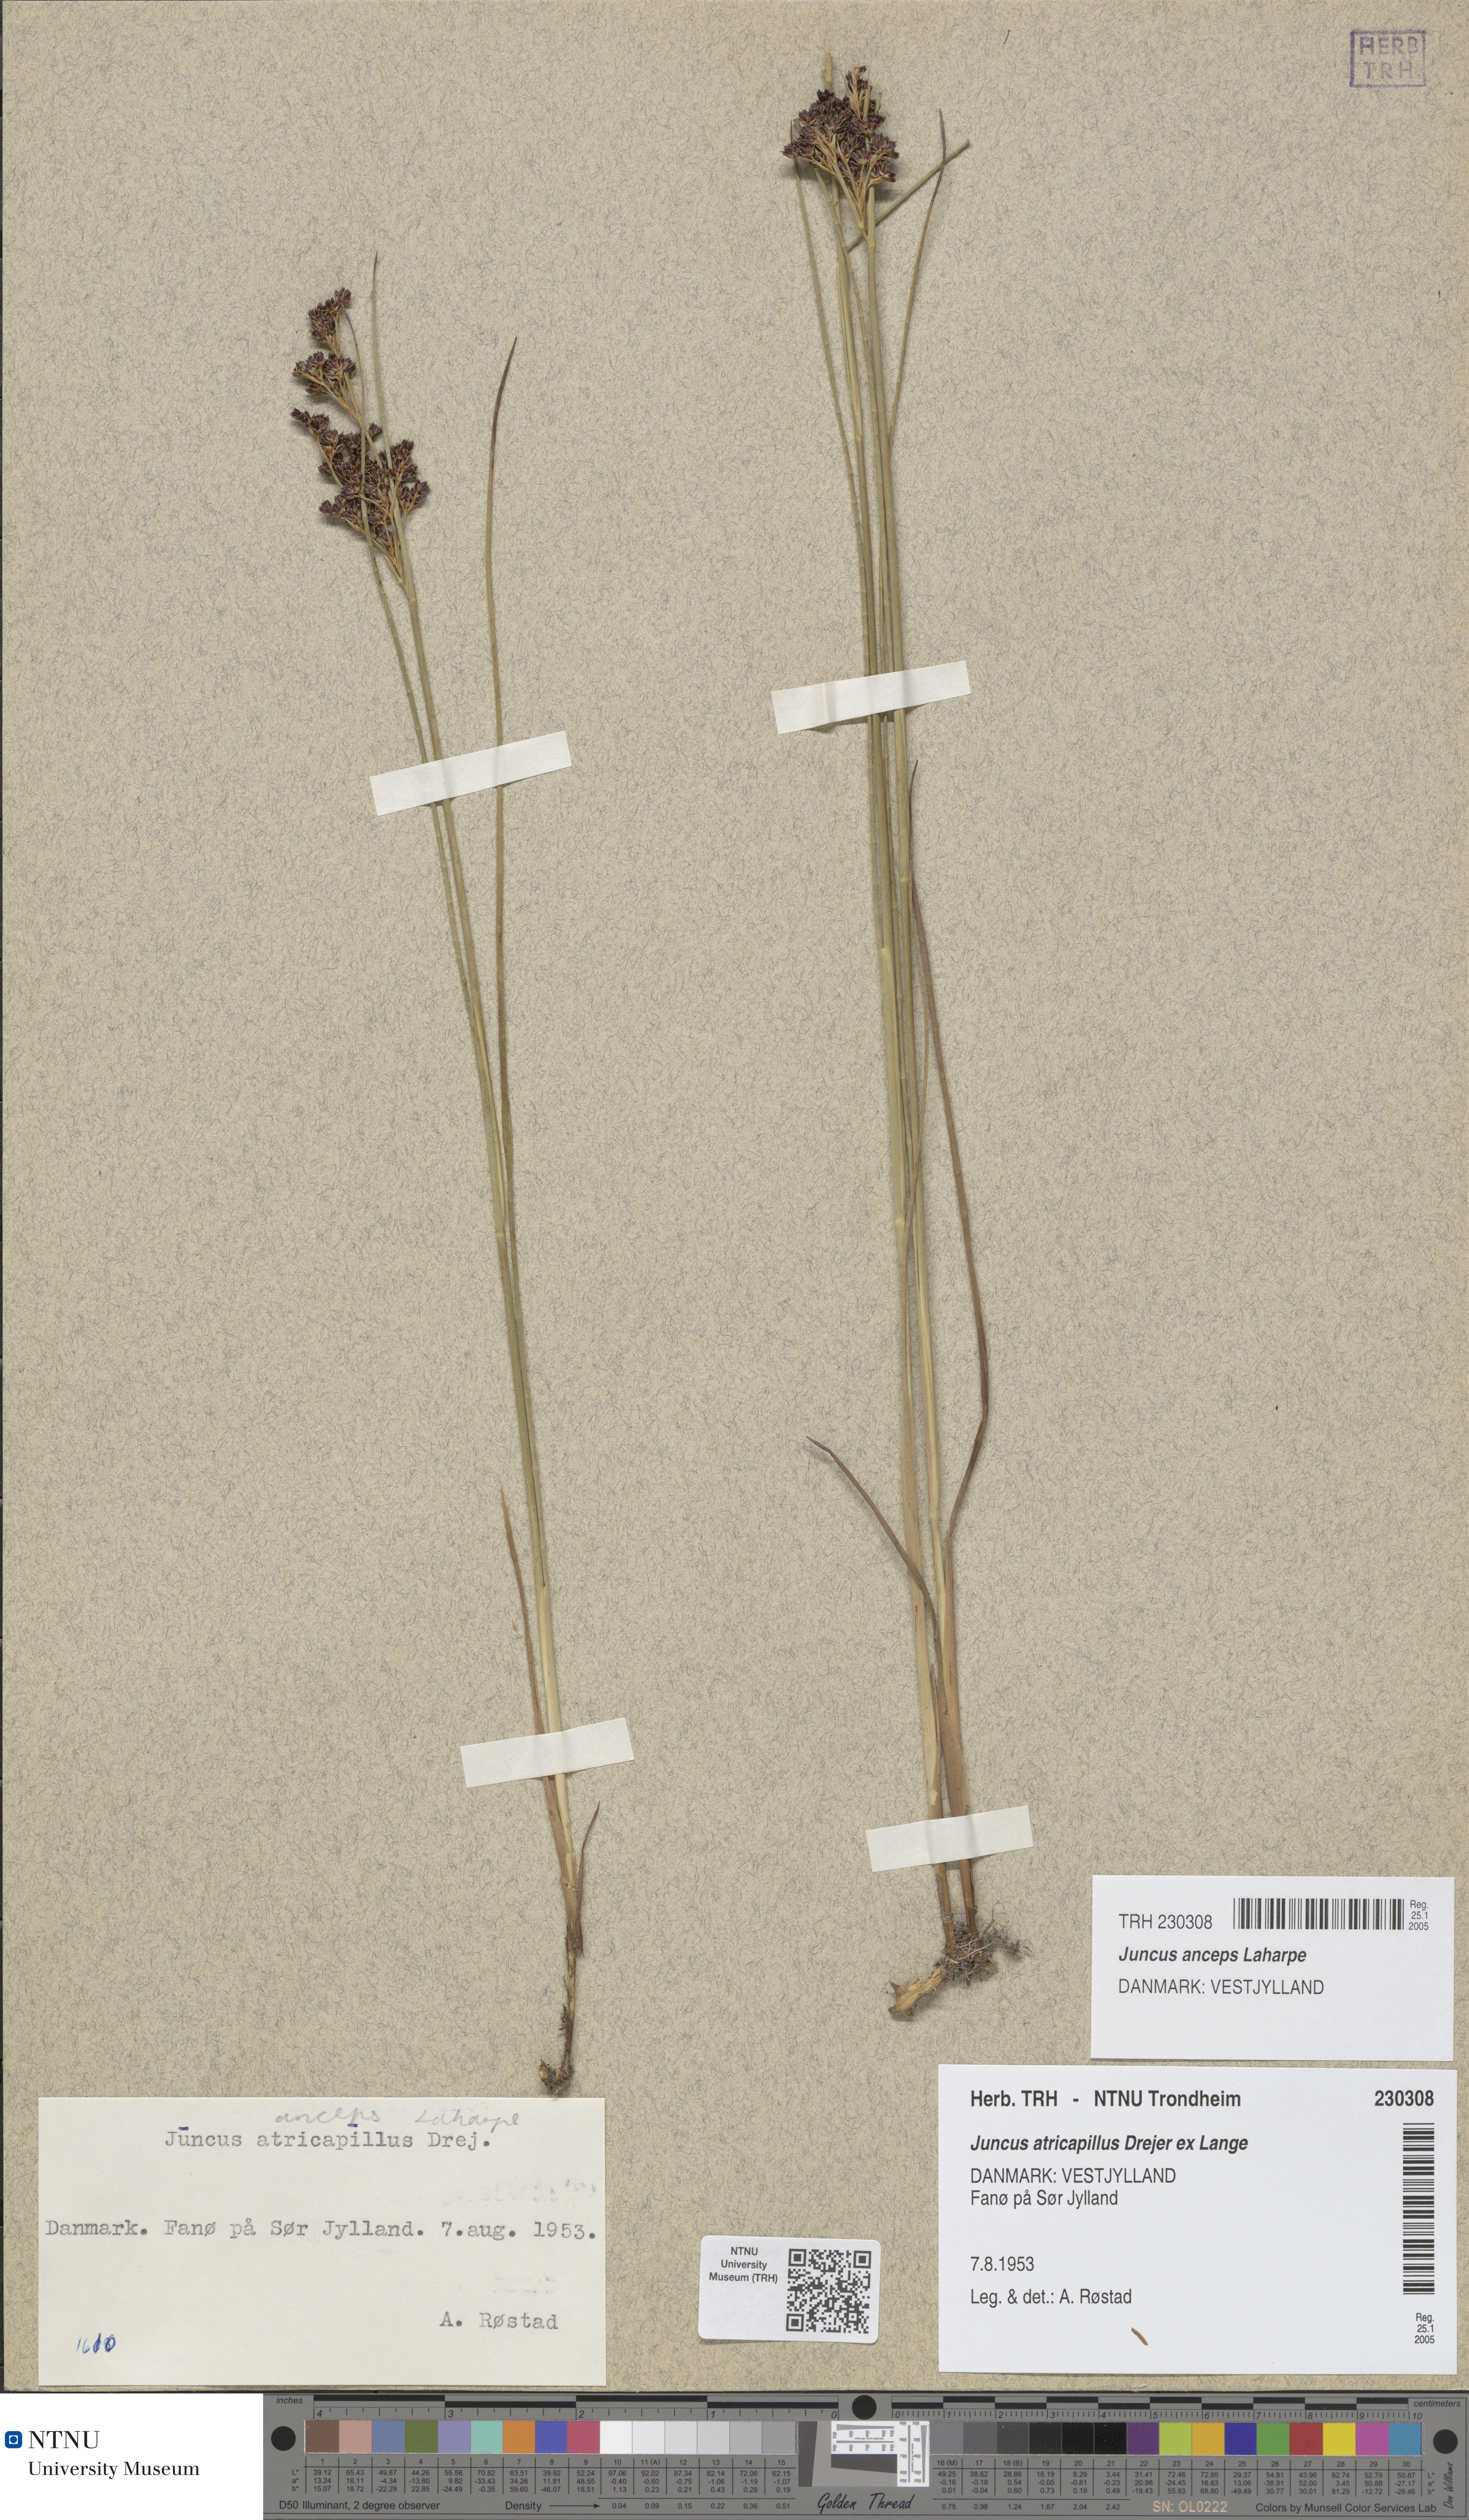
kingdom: Plantae
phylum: Tracheophyta
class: Liliopsida
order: Poales
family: Juncaceae
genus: Juncus
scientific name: Juncus anceps
